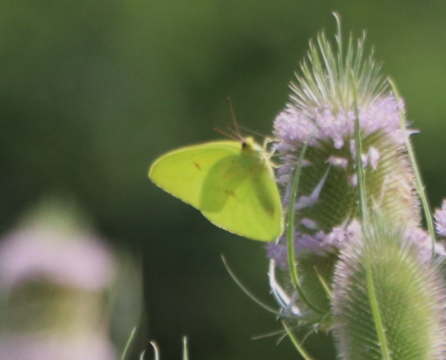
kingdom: Animalia
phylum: Arthropoda
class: Insecta
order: Lepidoptera
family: Pieridae
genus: Phoebis
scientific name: Phoebis sennae
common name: Cloudless Sulphur
